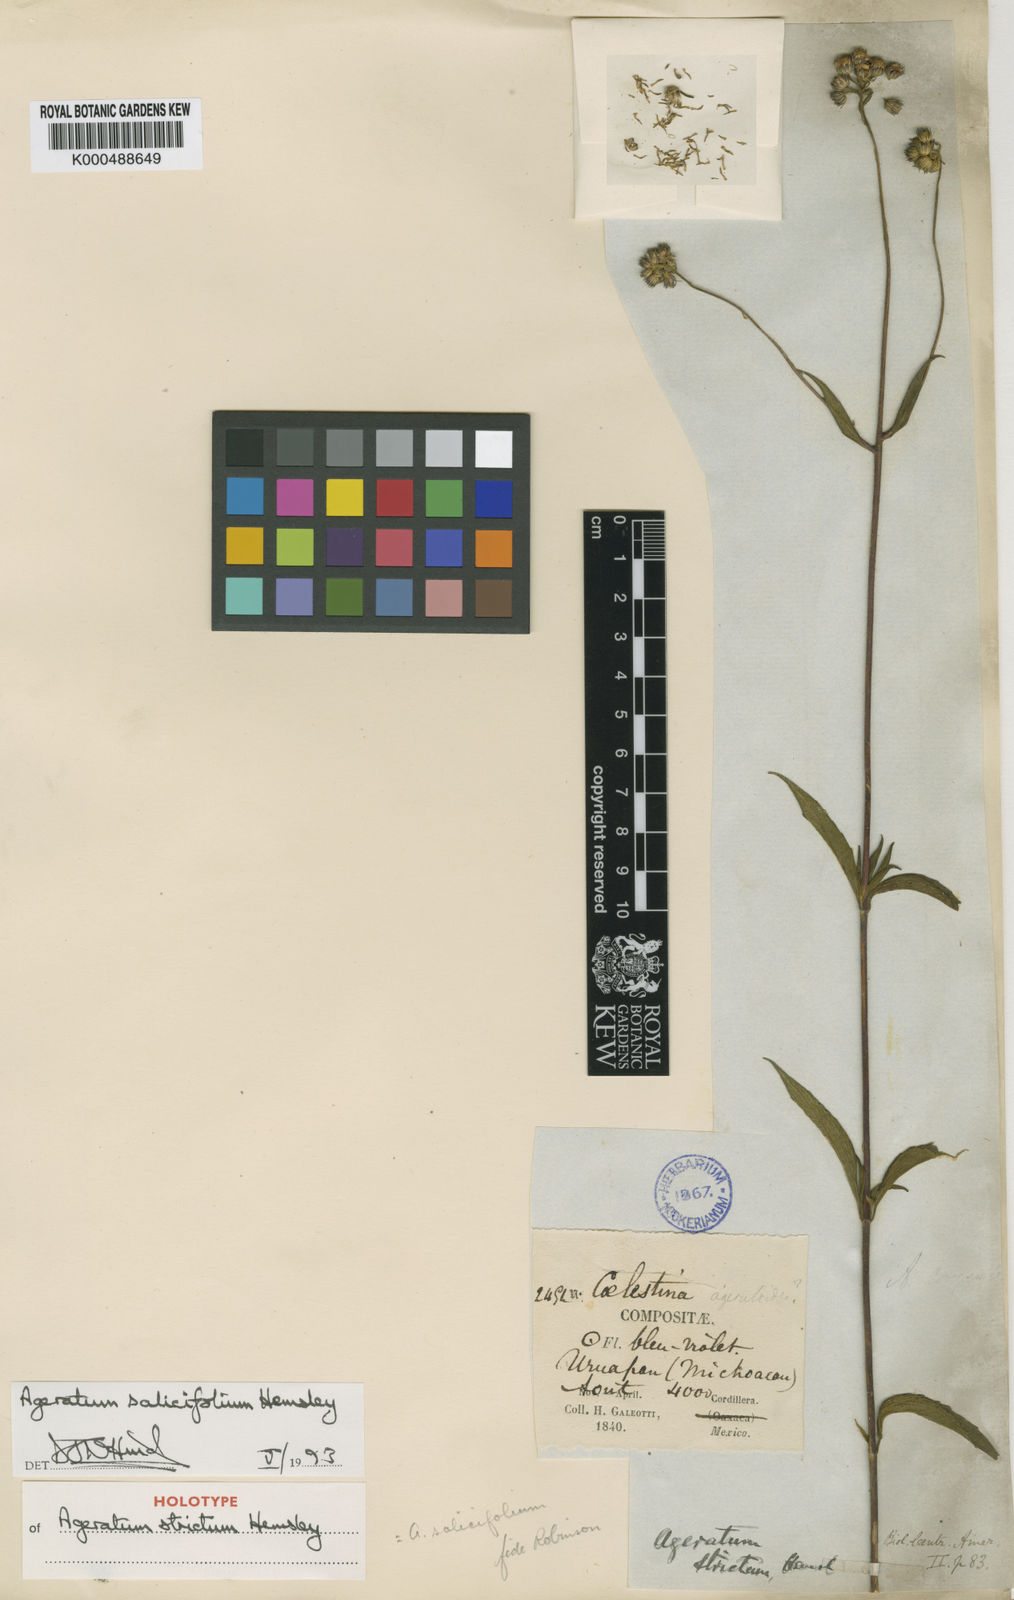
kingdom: Plantae
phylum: Tracheophyta
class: Magnoliopsida
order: Asterales
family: Asteraceae
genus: Ageratum
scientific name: Ageratum corymbosum
